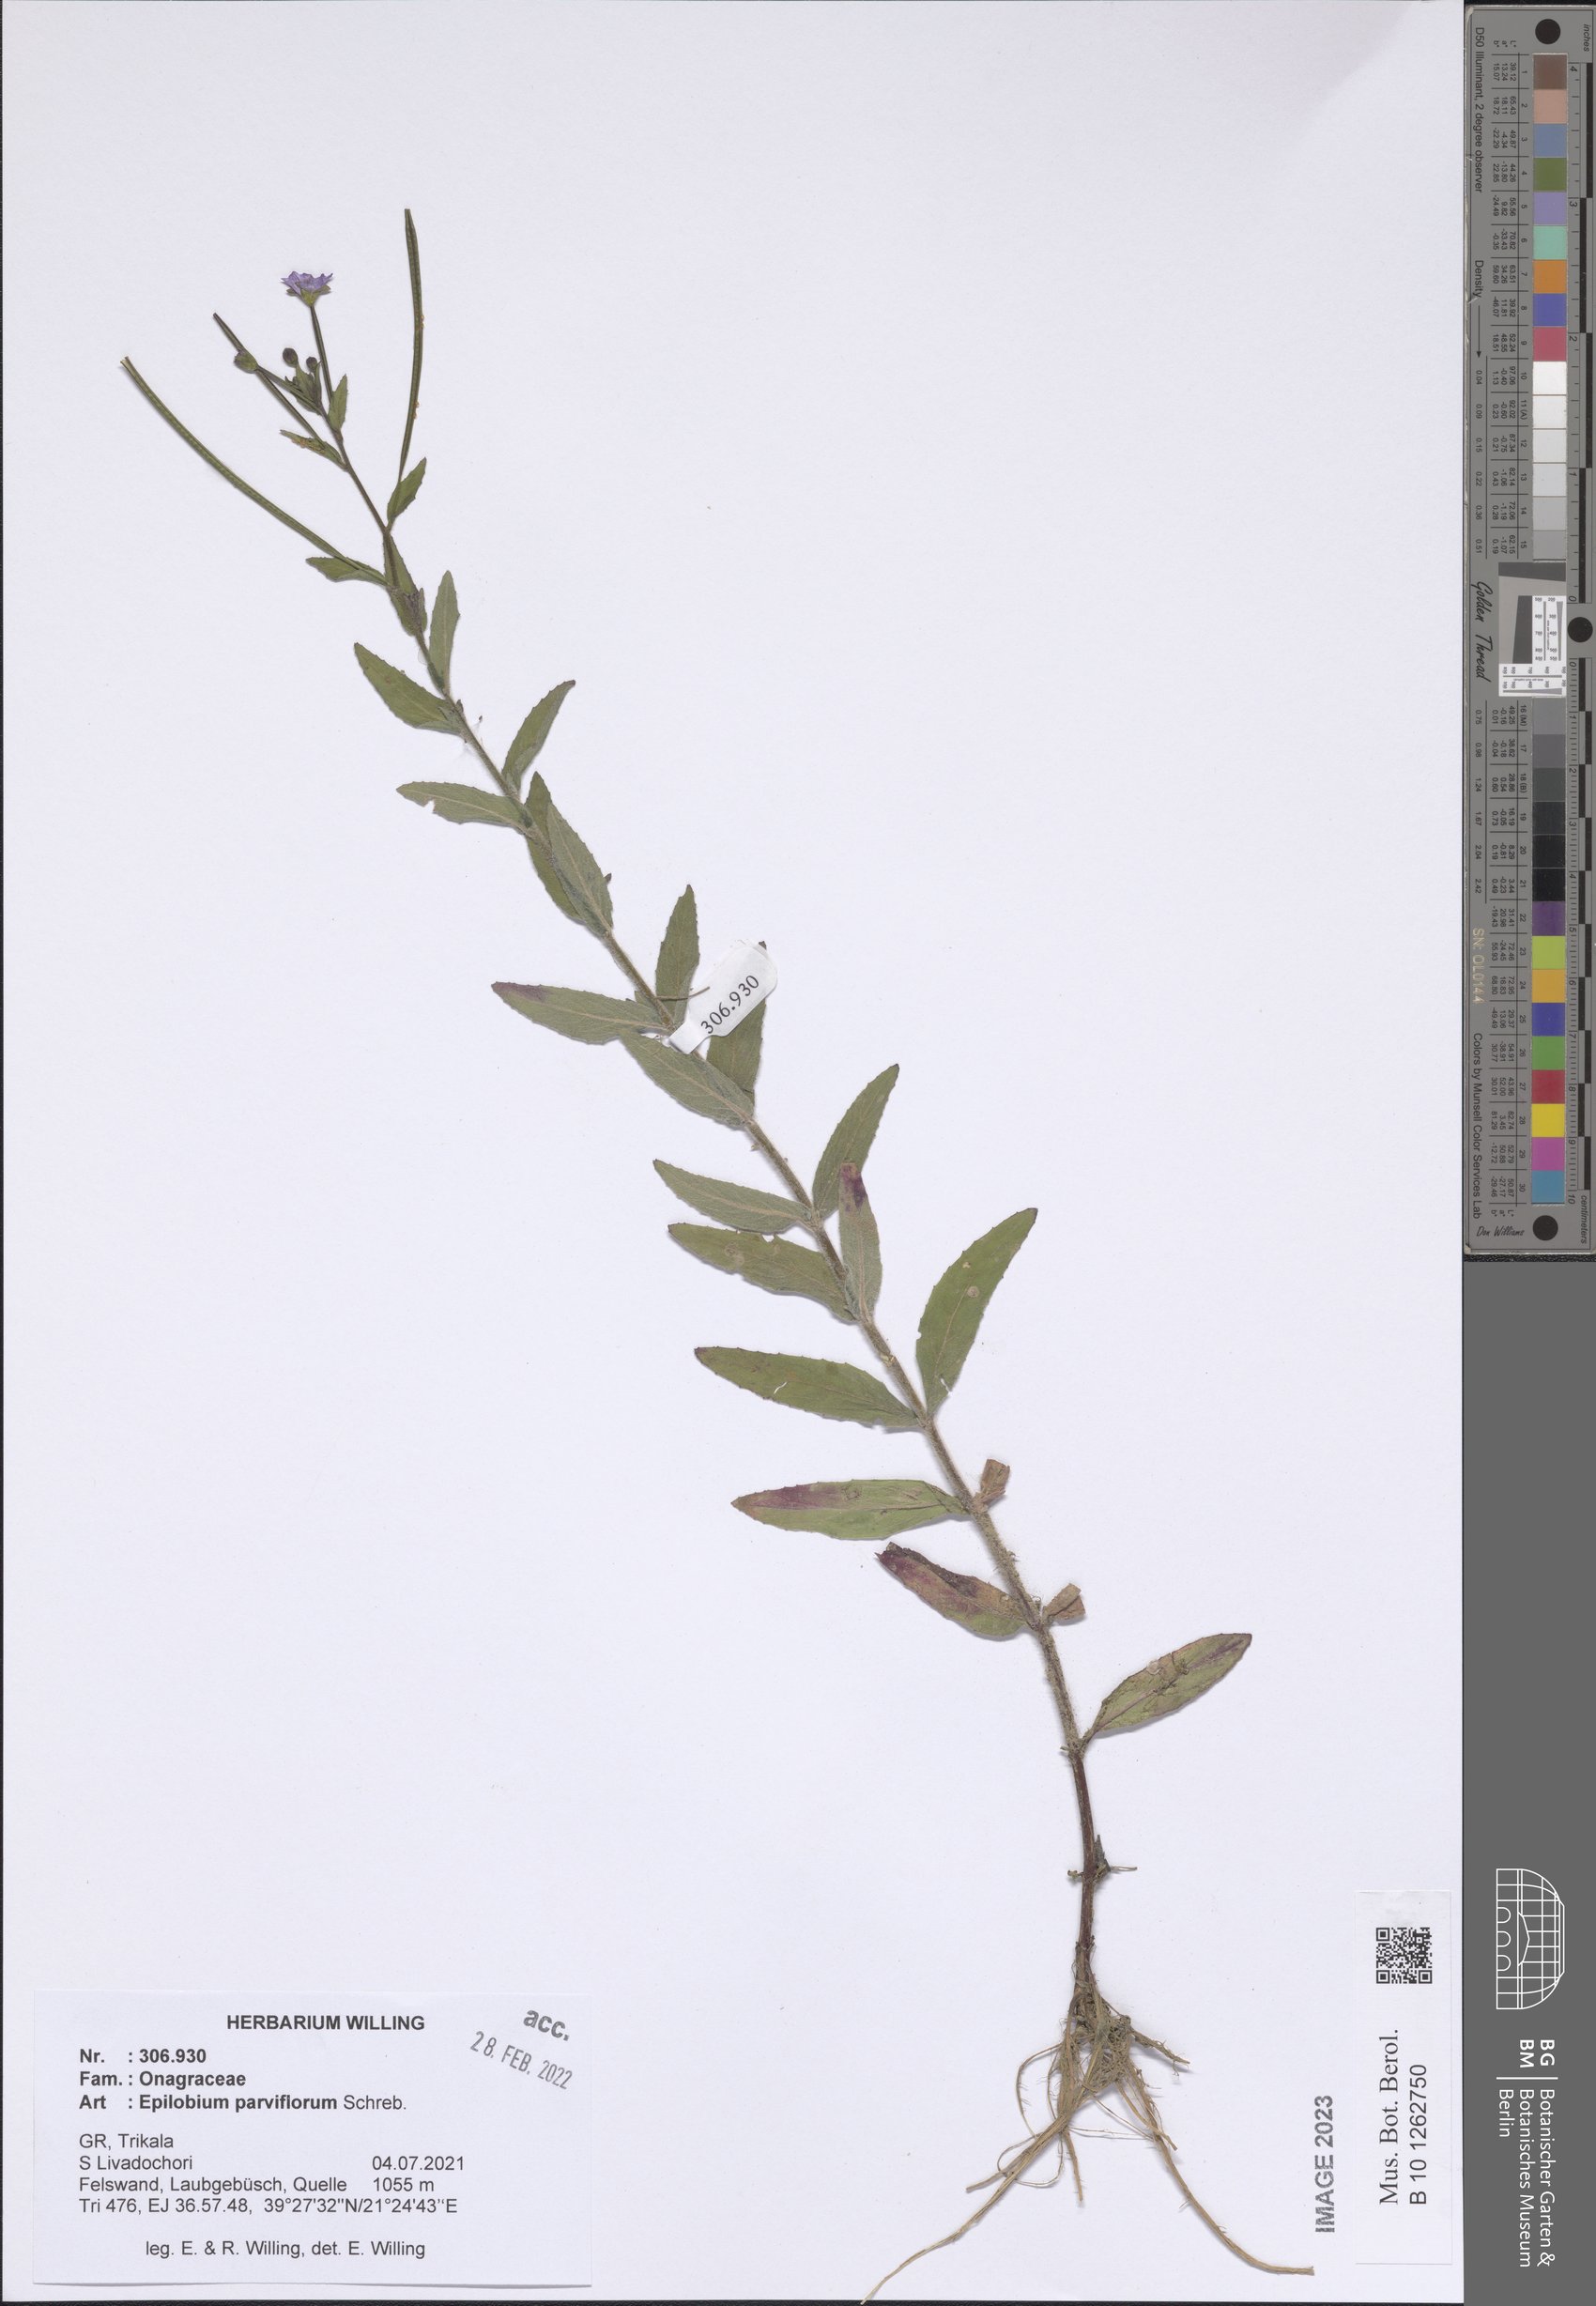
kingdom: Plantae
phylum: Tracheophyta
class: Magnoliopsida
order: Myrtales
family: Onagraceae
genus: Epilobium
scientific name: Epilobium parviflorum
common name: Hoary willowherb
